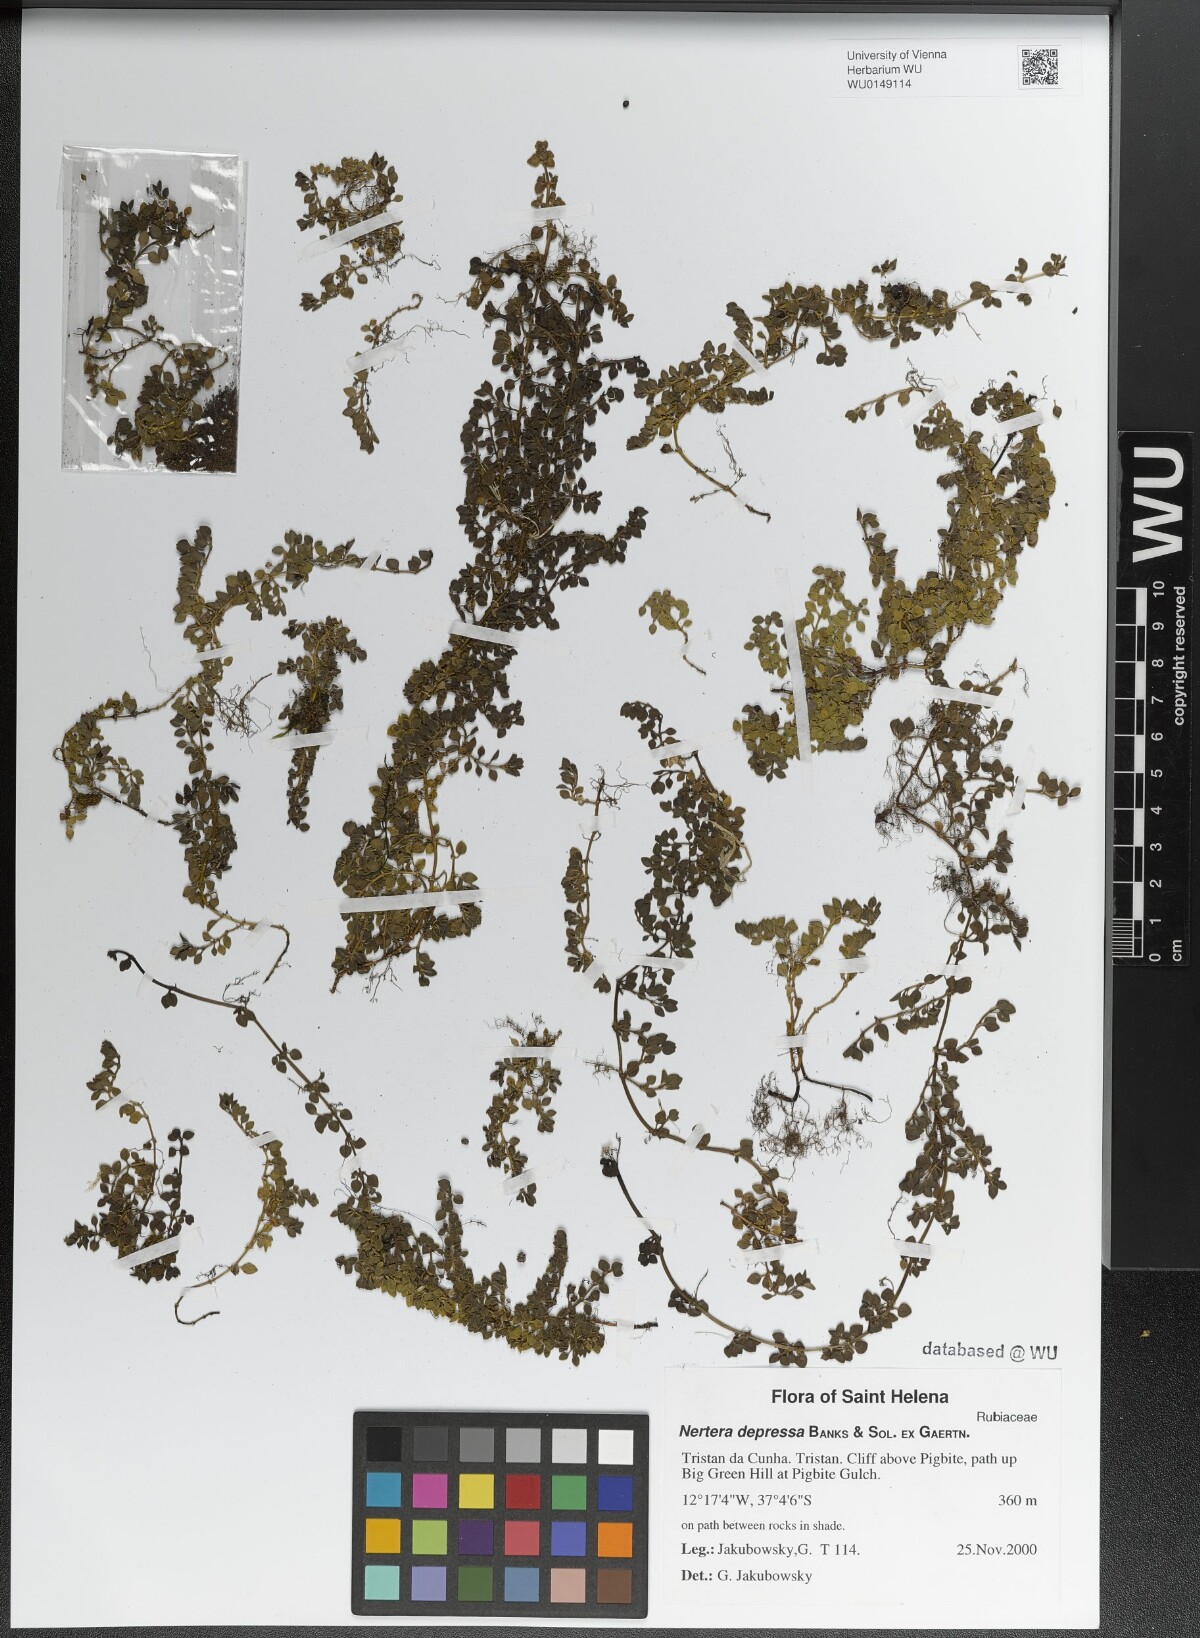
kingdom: Plantae
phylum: Tracheophyta
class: Magnoliopsida
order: Gentianales
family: Rubiaceae
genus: Nertera
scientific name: Nertera granadensis
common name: Beadplant
